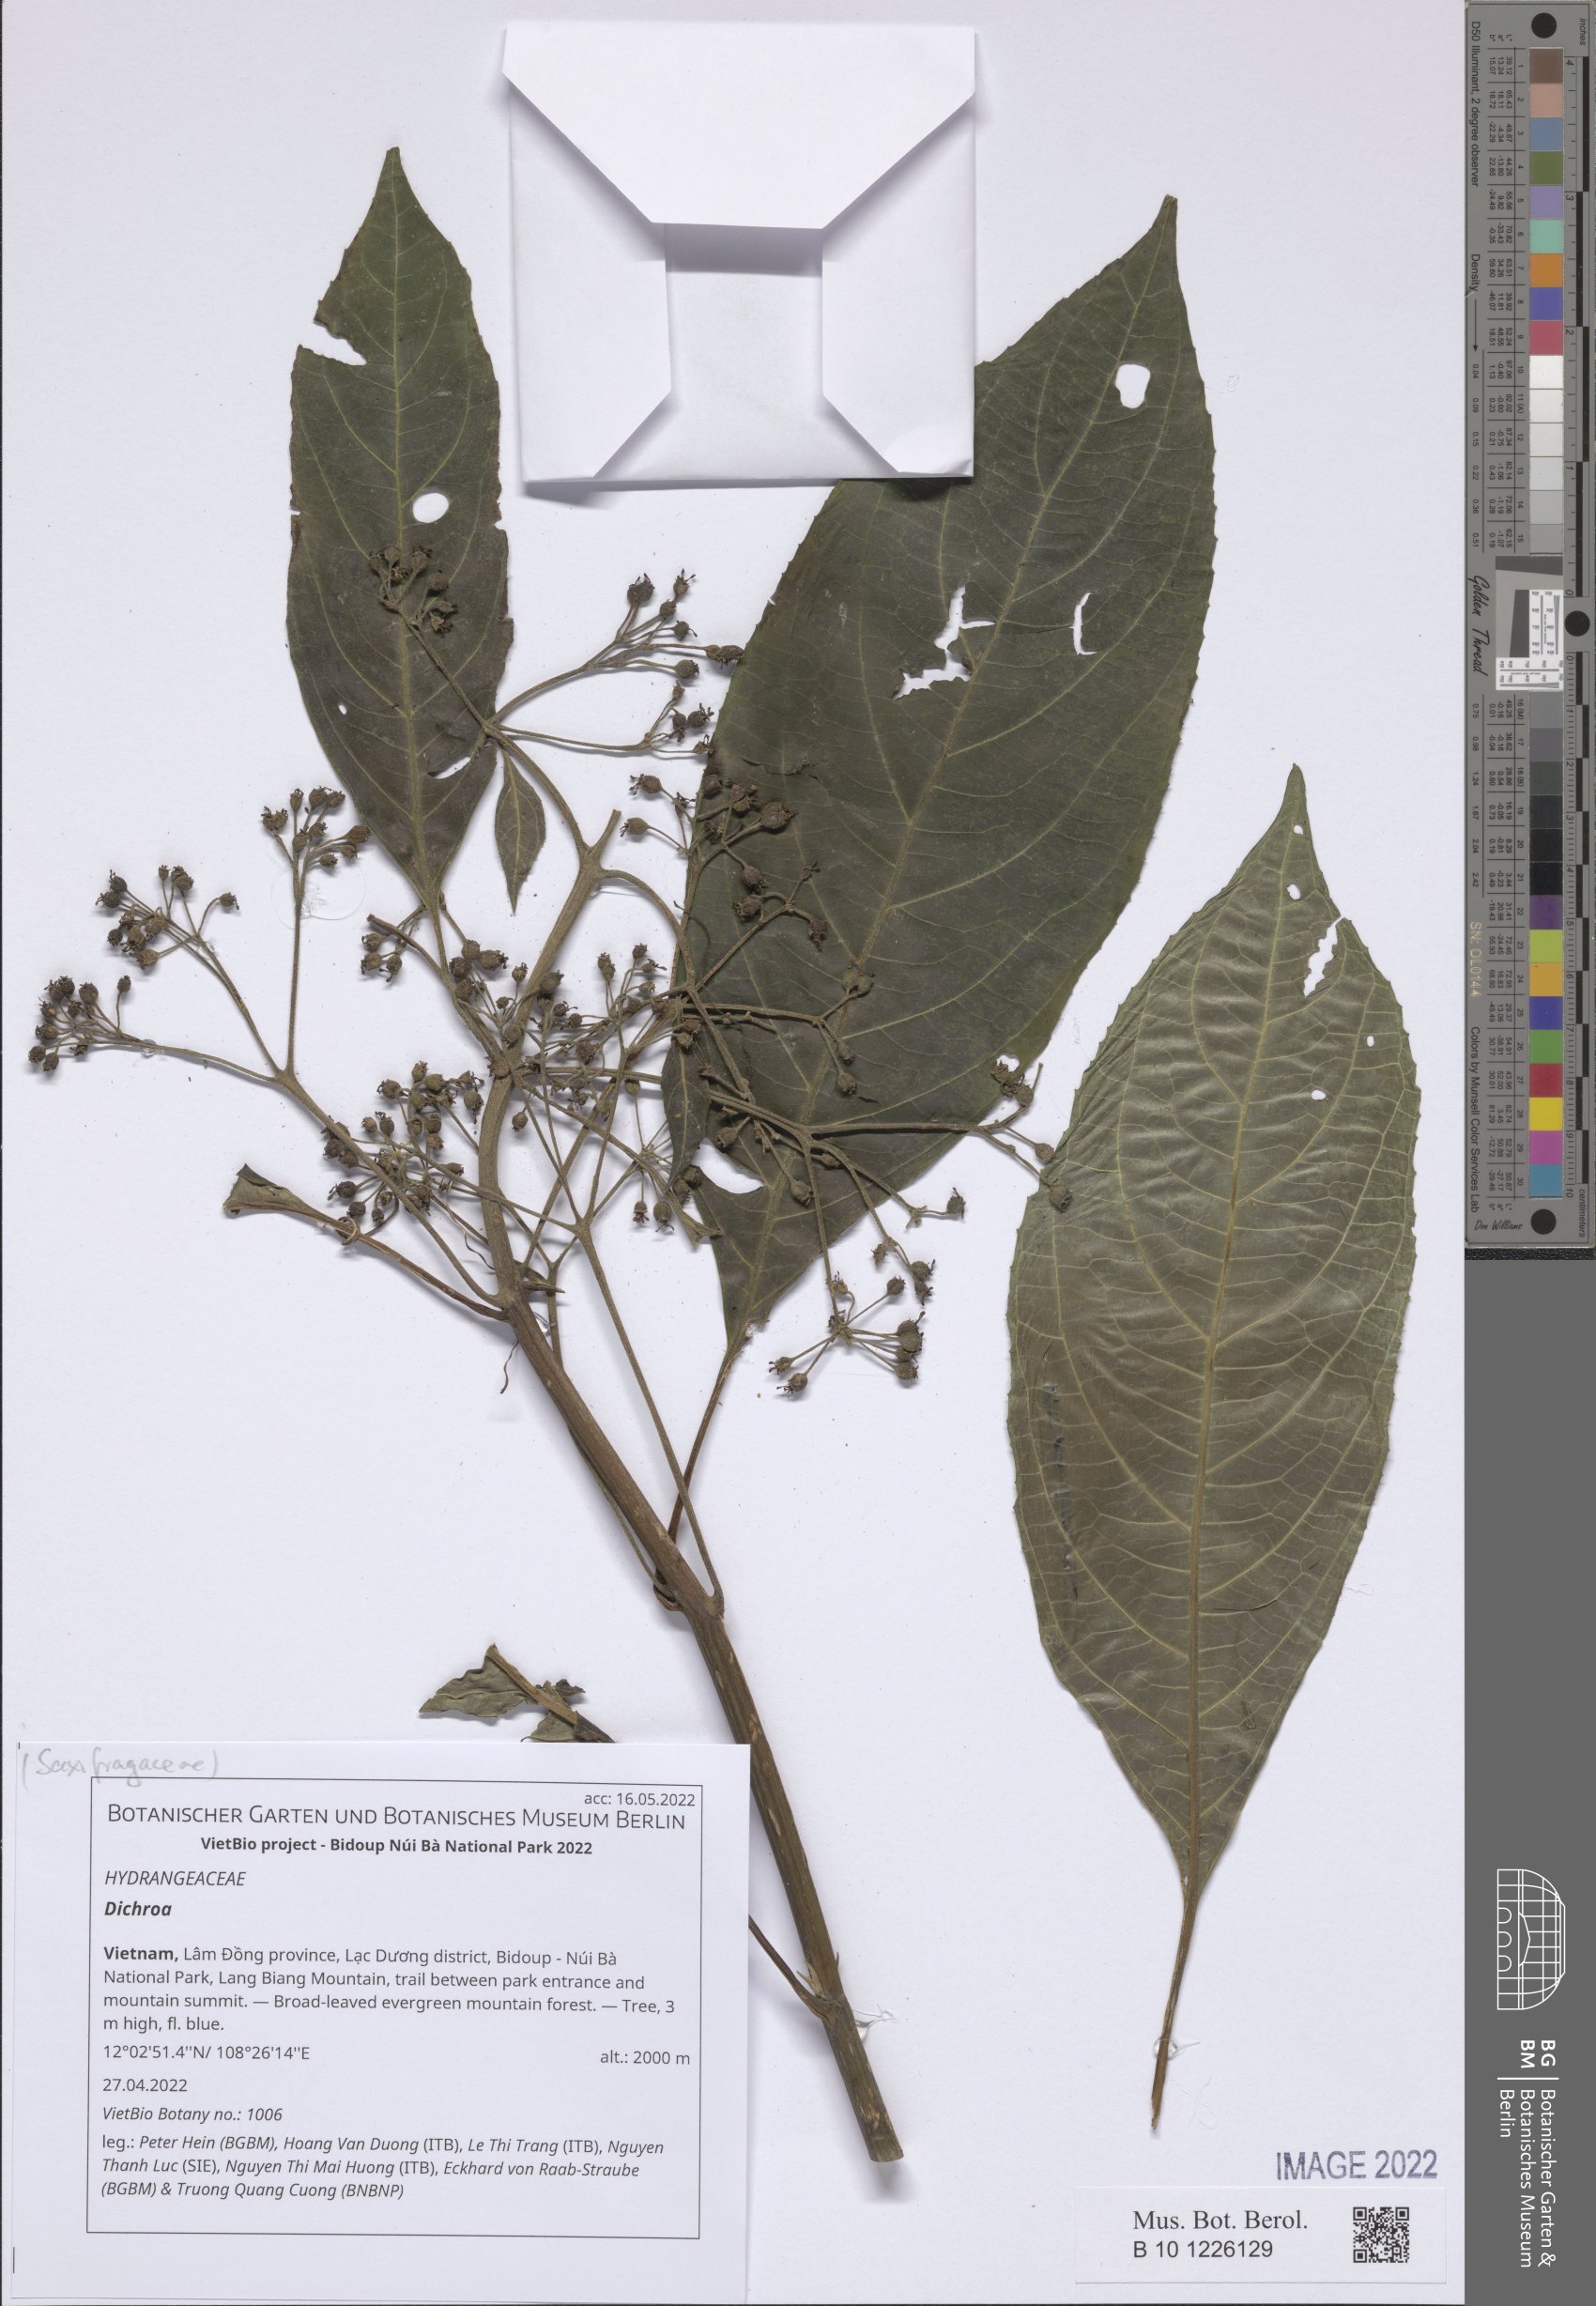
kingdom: Plantae
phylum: Tracheophyta
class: Magnoliopsida
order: Cornales
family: Hydrangeaceae
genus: Hydrangea
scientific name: Hydrangea
